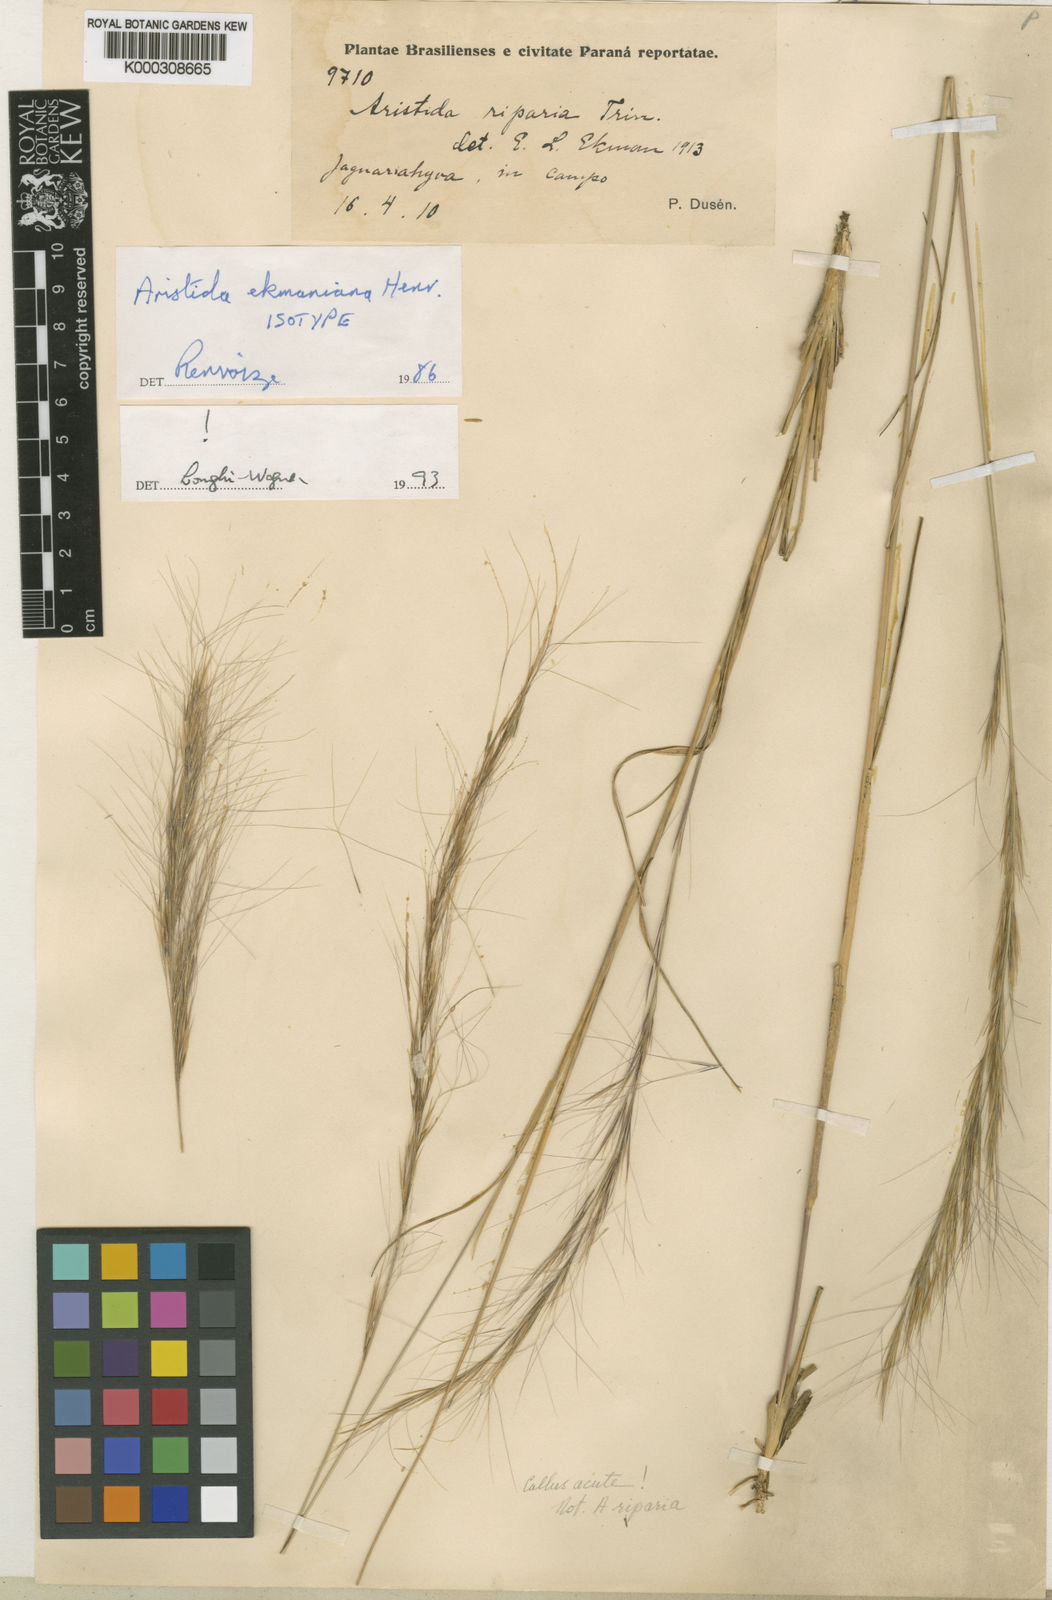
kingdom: Plantae
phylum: Tracheophyta
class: Liliopsida
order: Poales
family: Poaceae
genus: Aristida
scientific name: Aristida ekmaniana
